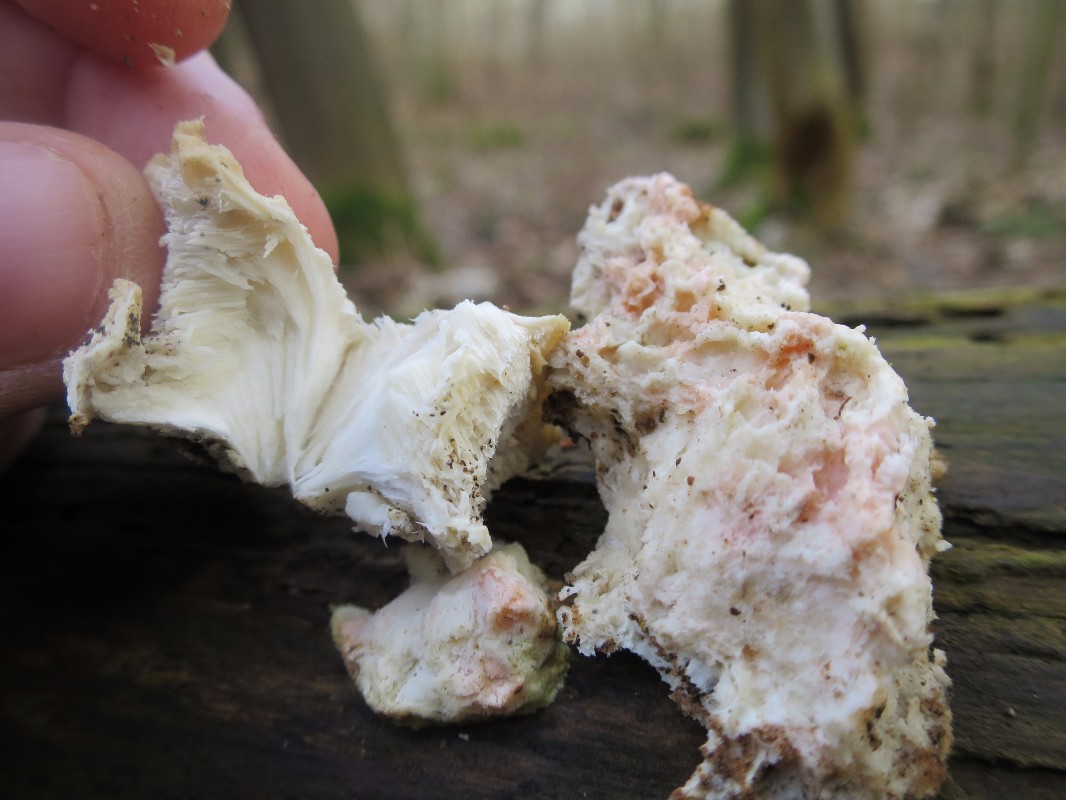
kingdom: Fungi
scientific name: Fungi
